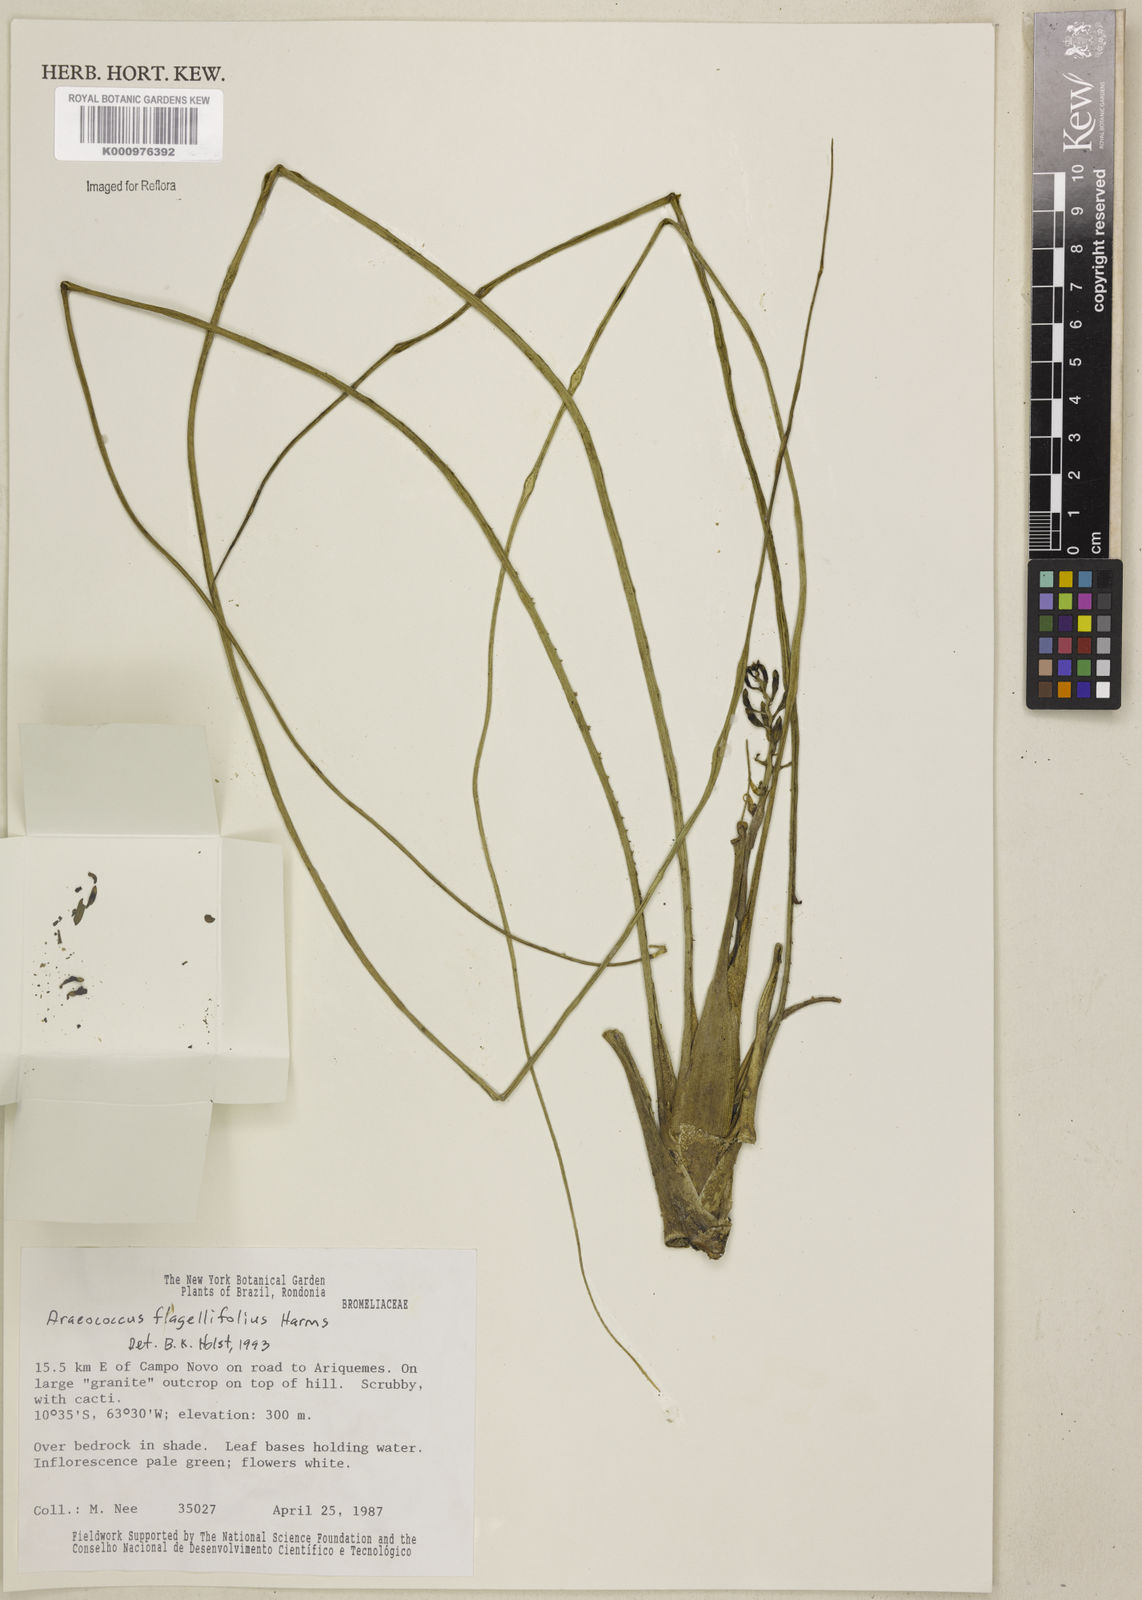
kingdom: Plantae
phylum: Tracheophyta
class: Liliopsida
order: Poales
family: Bromeliaceae
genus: Araeococcus
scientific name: Araeococcus flagellifolius
